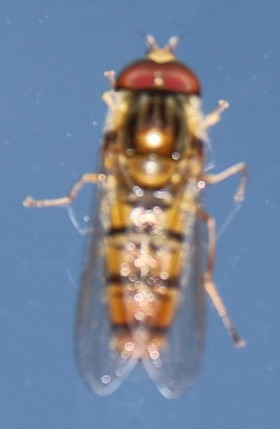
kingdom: Animalia
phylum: Arthropoda
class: Insecta
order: Diptera
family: Syrphidae
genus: Episyrphus
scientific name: Episyrphus balteatus
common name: Dobbeltbåndet svirreflue
